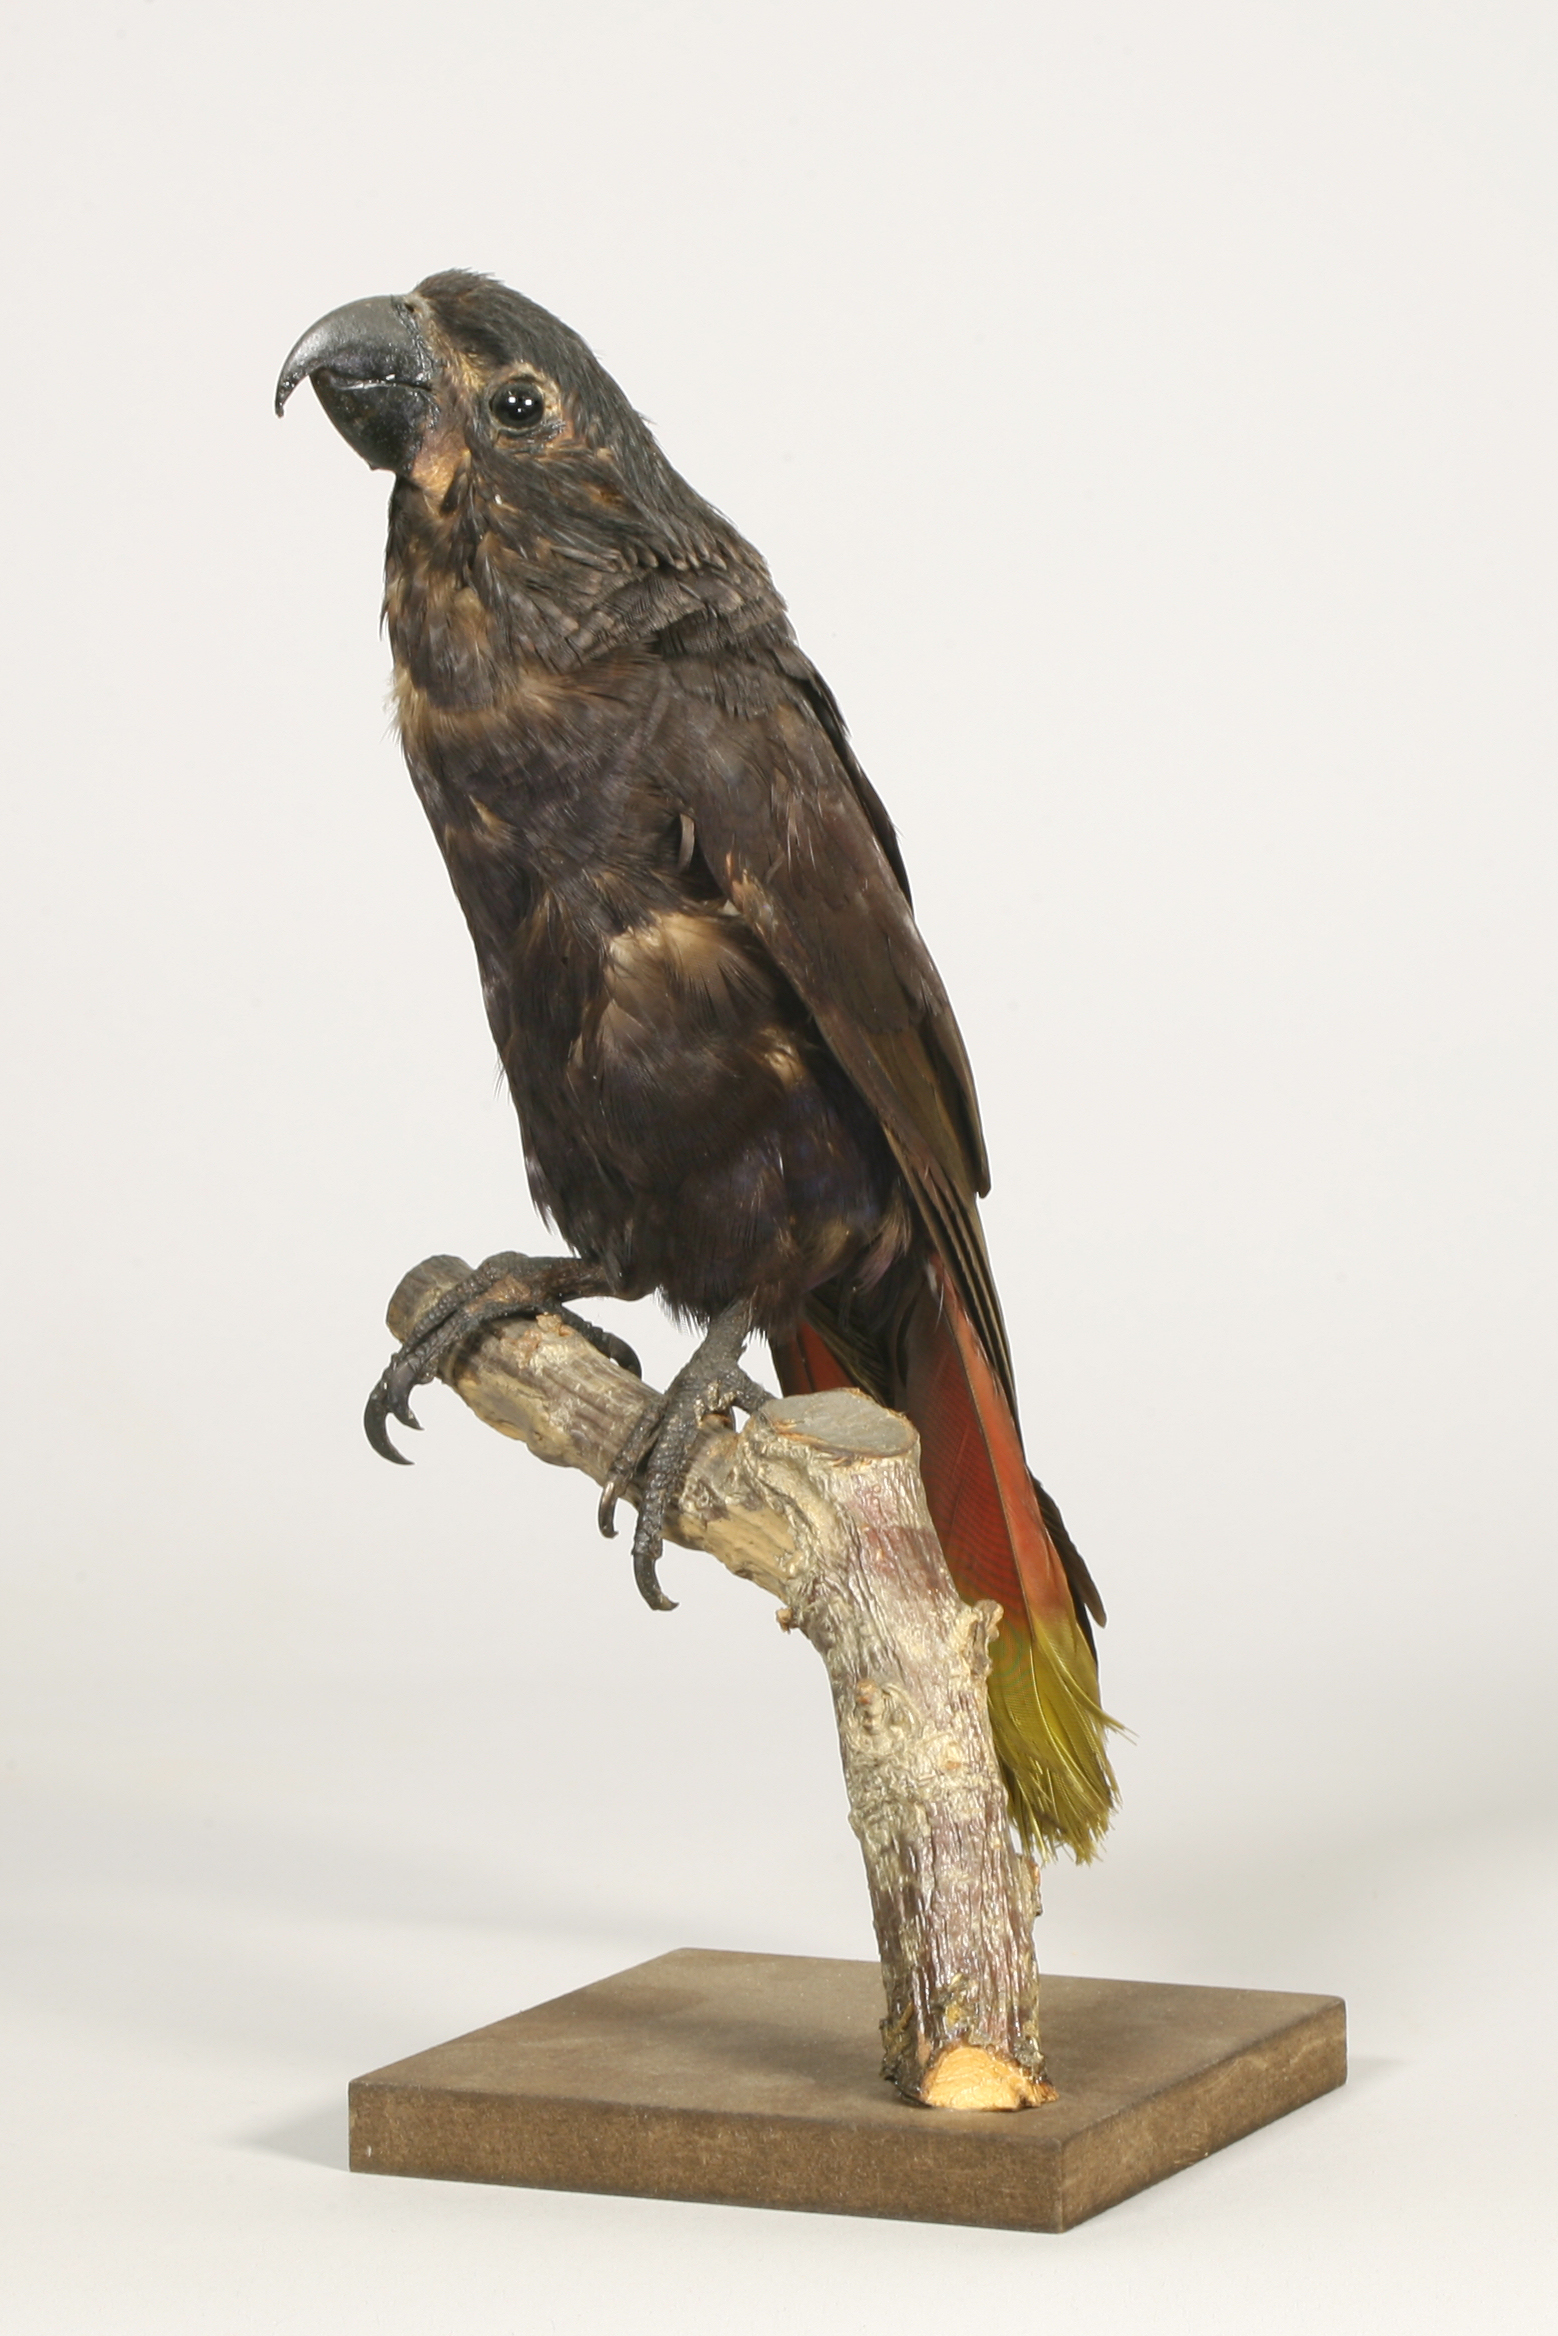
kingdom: Animalia
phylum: Chordata
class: Aves
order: Psittaciformes
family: Psittacidae
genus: Chalcopsitta
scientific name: Chalcopsitta atra
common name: Black lory
